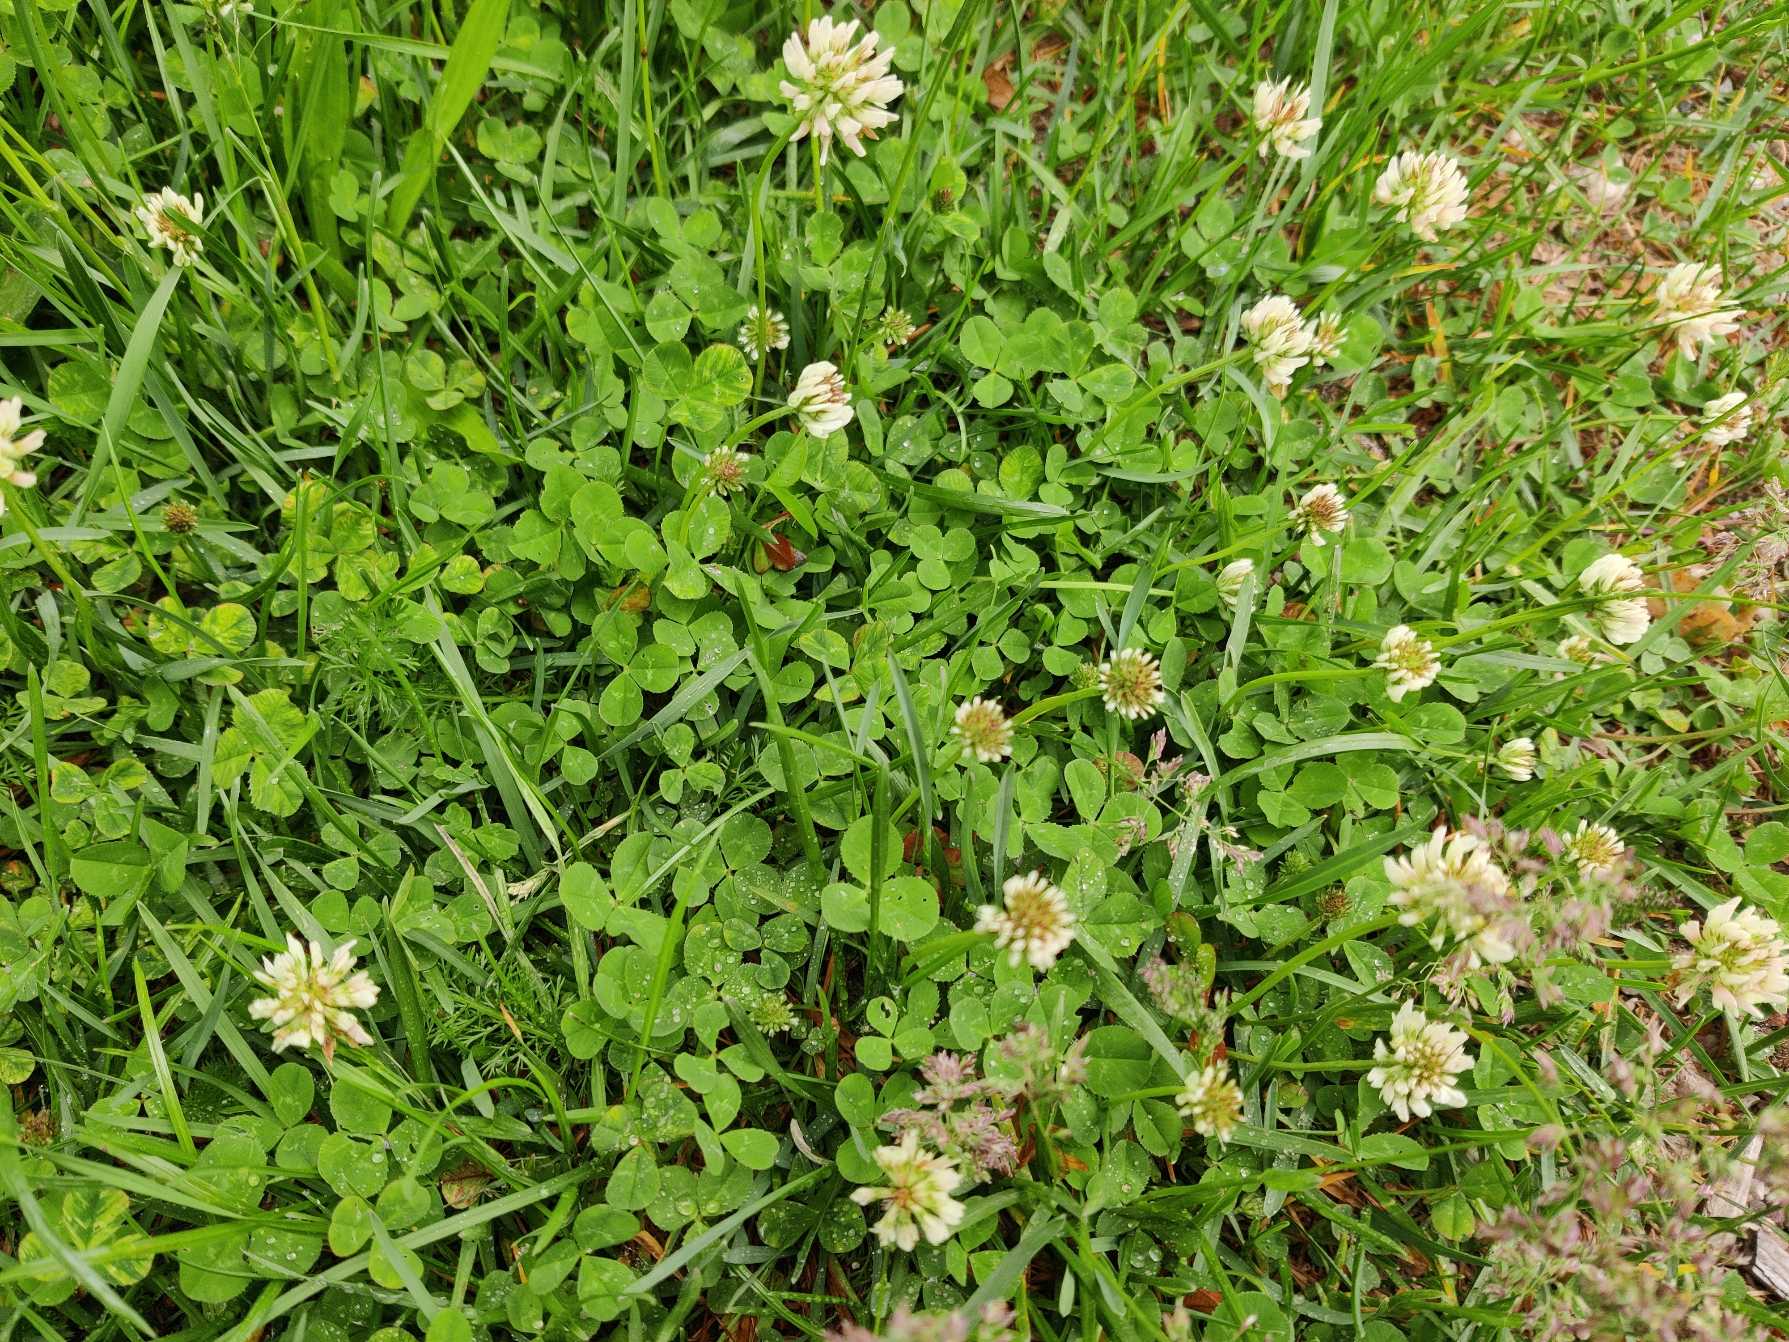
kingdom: Plantae
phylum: Tracheophyta
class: Magnoliopsida
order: Fabales
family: Fabaceae
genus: Trifolium
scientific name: Trifolium repens
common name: Hvid-kløver
